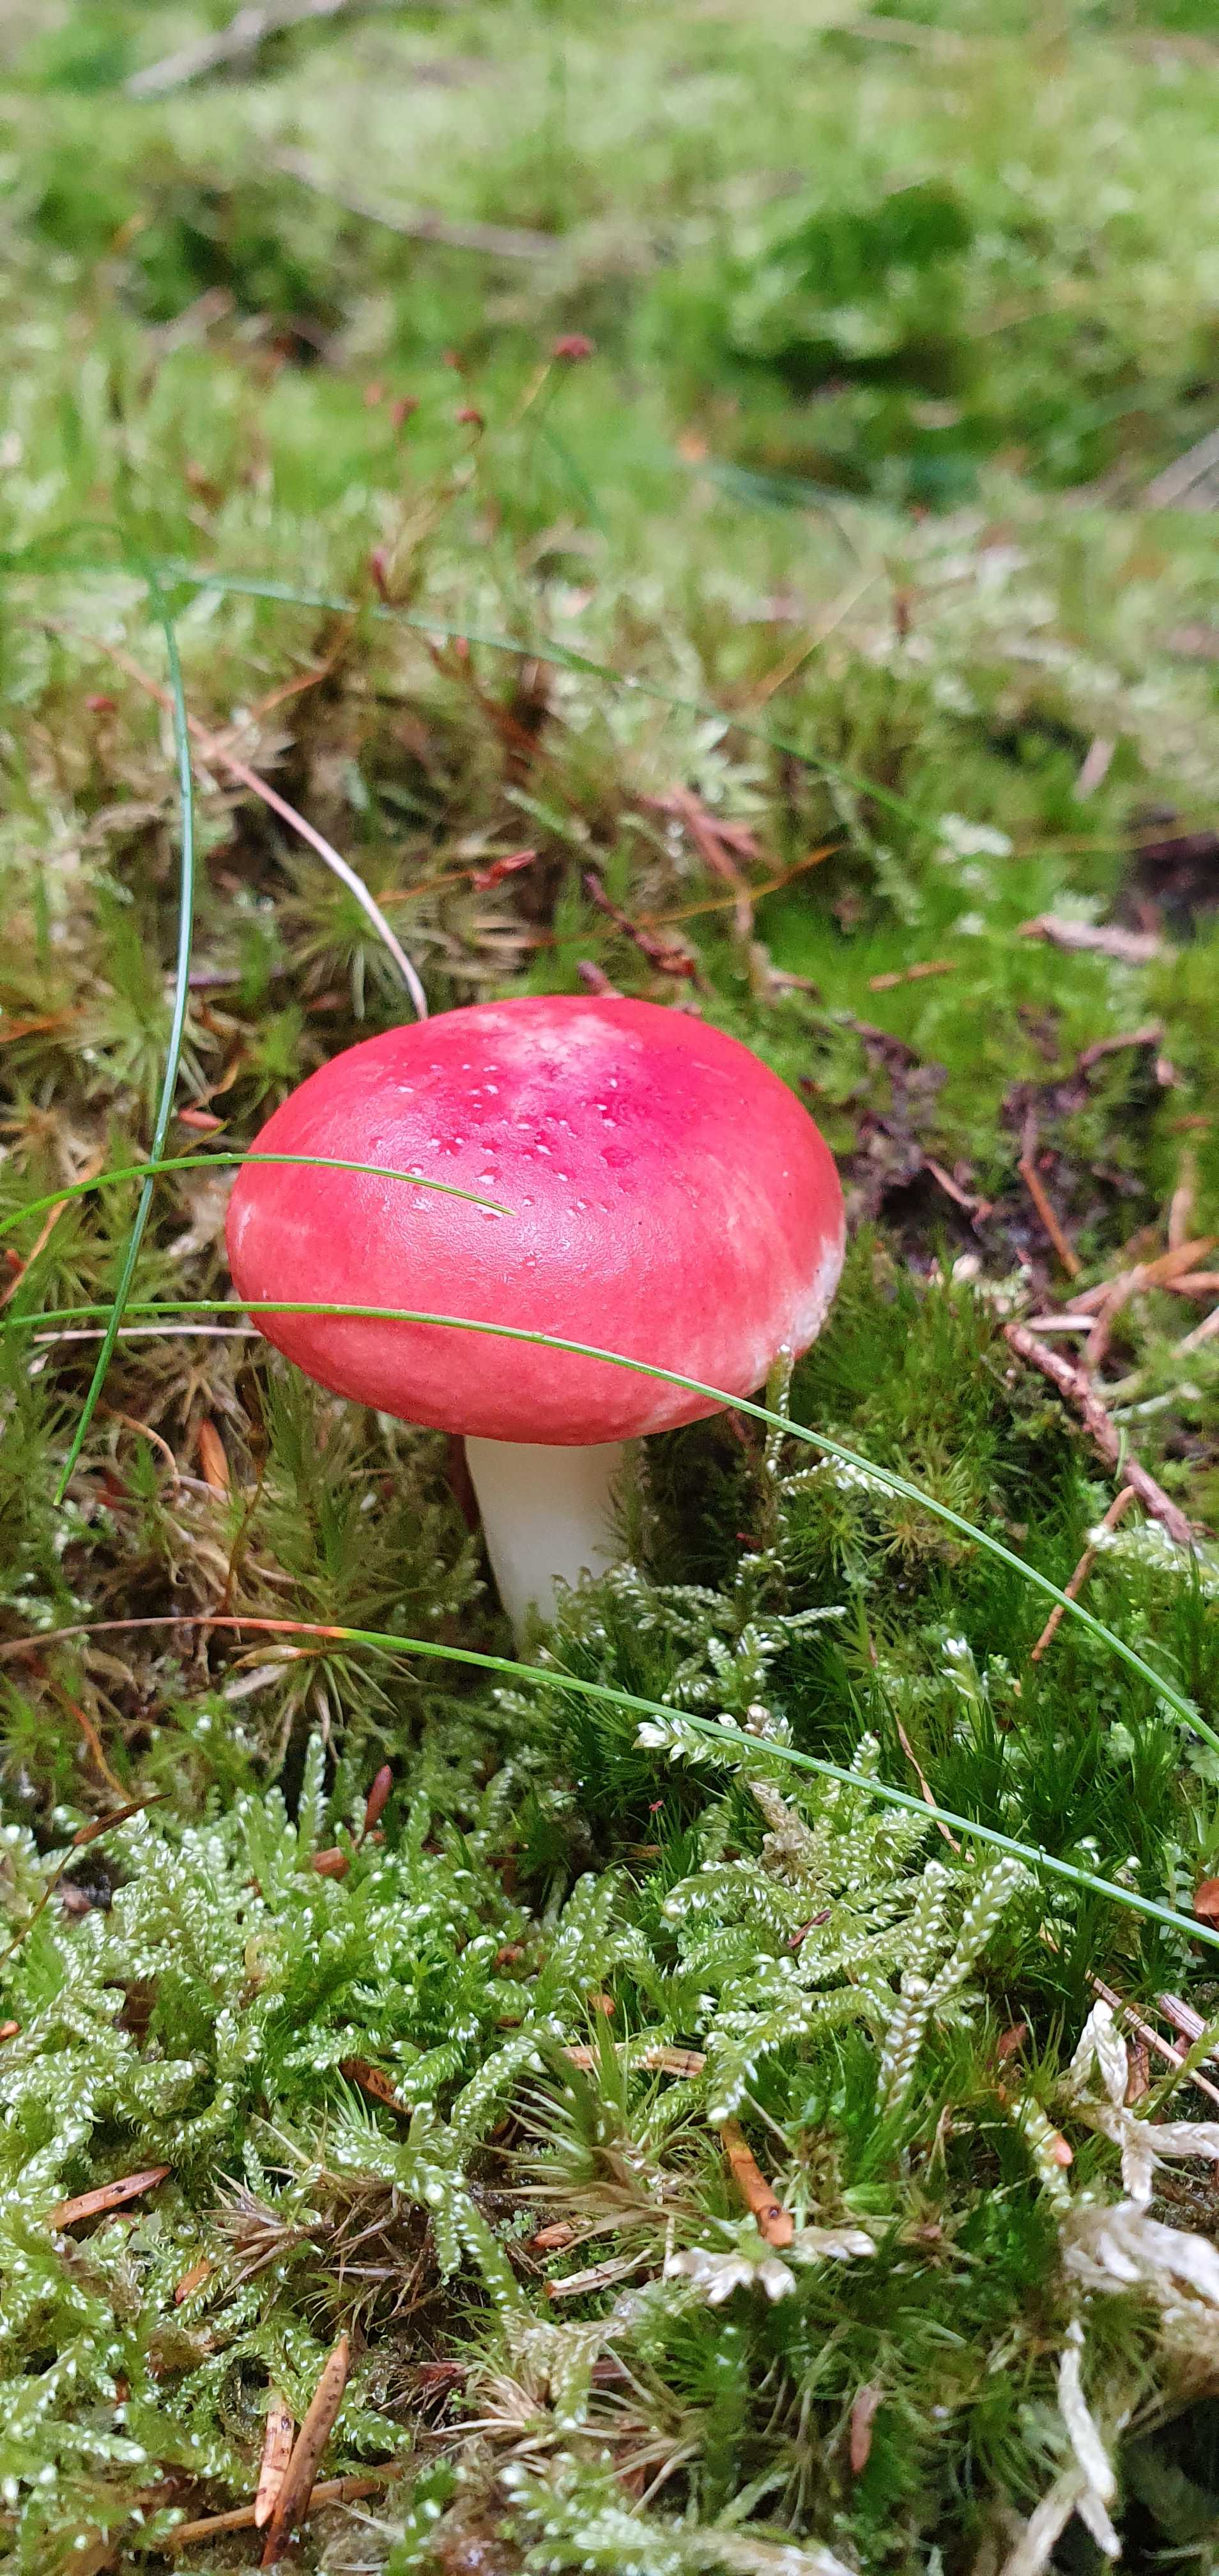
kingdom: Fungi
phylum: Basidiomycota
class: Agaricomycetes
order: Russulales
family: Russulaceae
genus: Russula
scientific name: Russula emetica
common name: stor gift-skørhat
